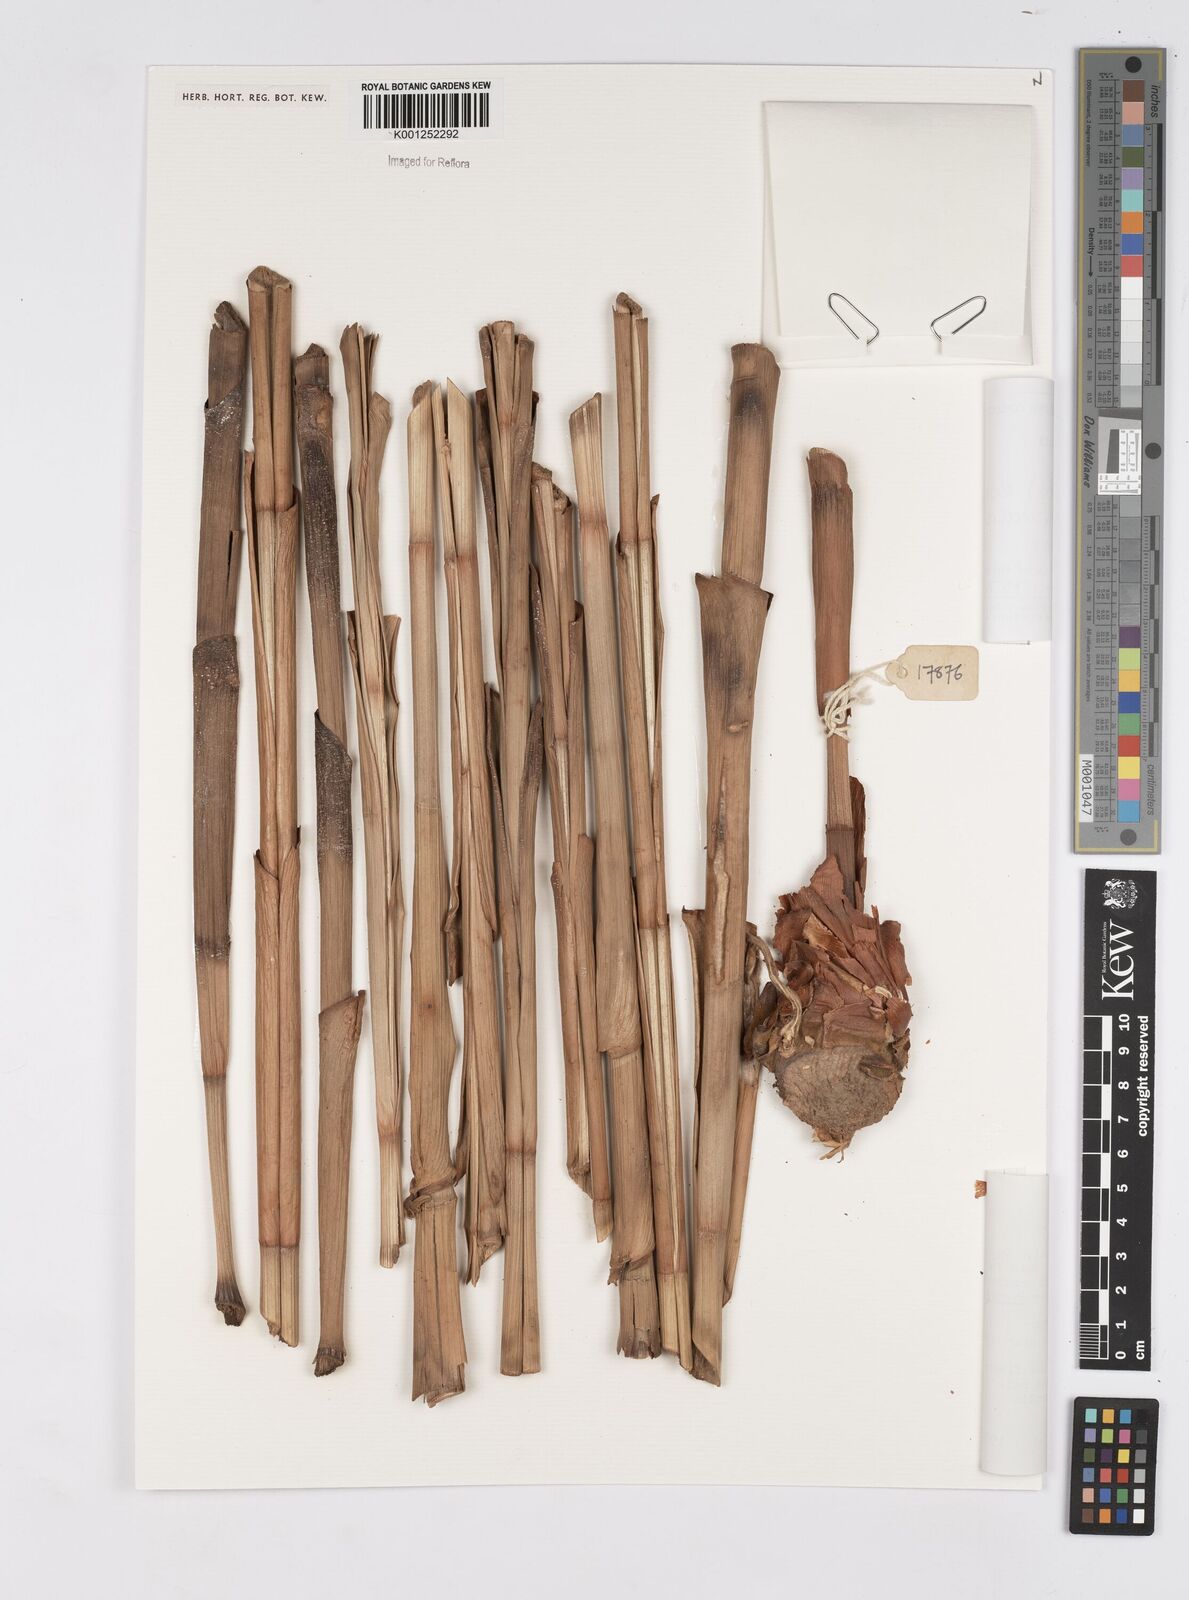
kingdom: Plantae
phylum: Tracheophyta
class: Liliopsida
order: Zingiberales
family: Costaceae
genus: Costus
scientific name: Costus spiralis
